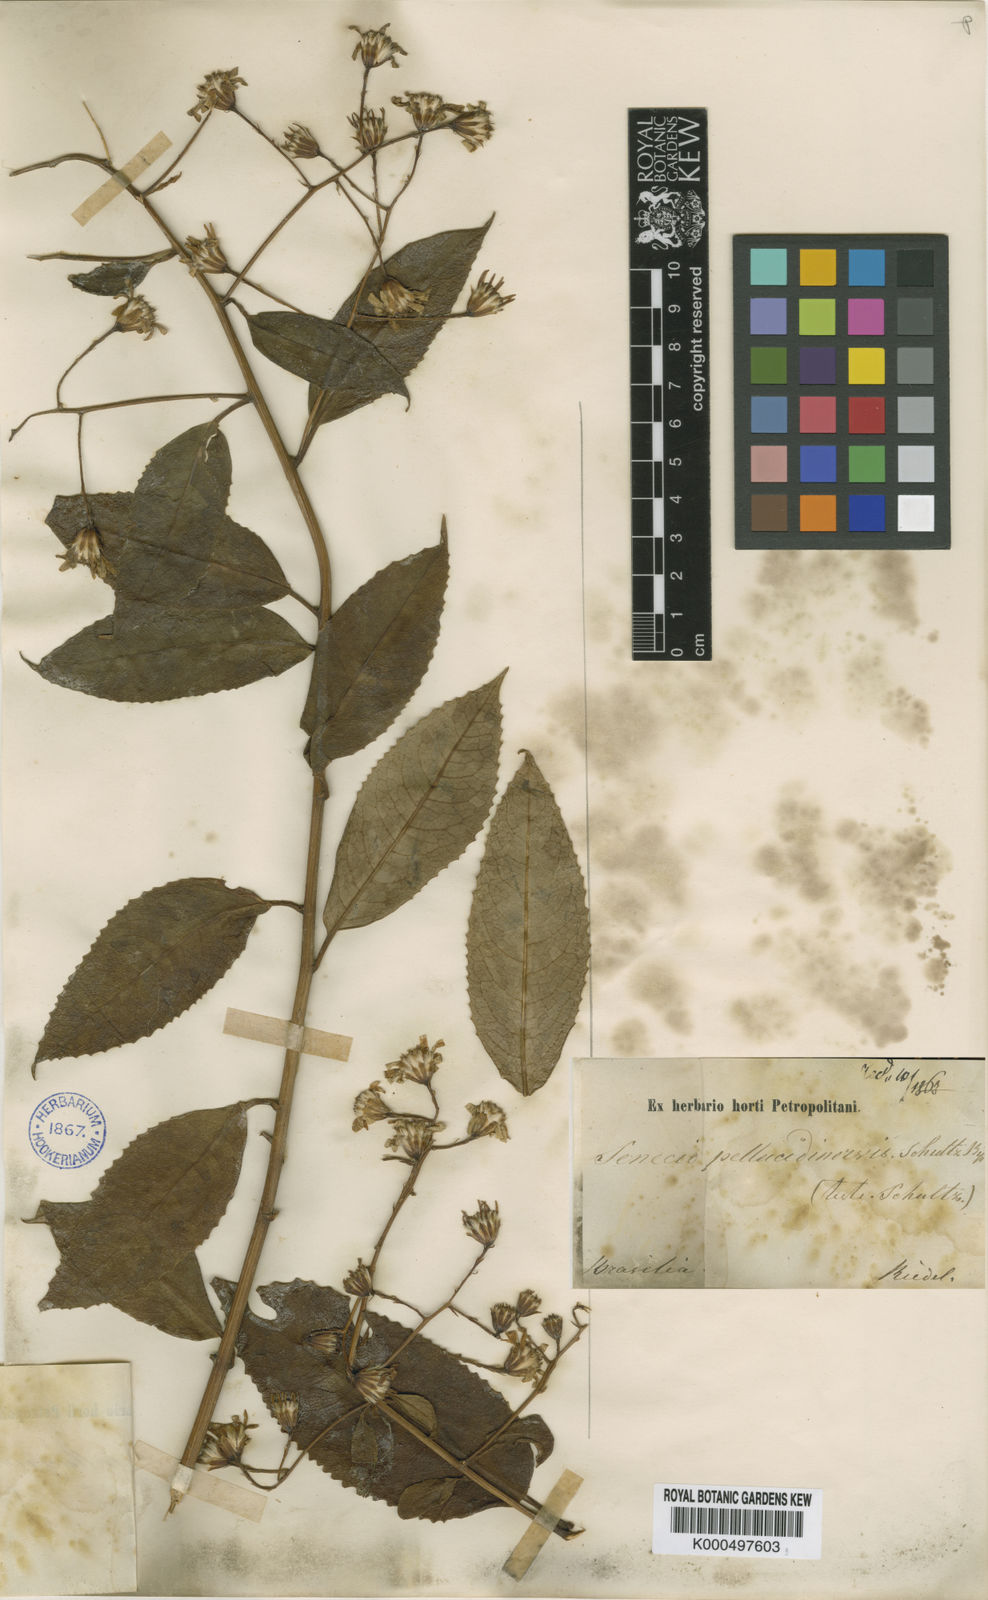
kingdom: Plantae
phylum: Tracheophyta
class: Magnoliopsida
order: Asterales
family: Asteraceae
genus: Dendrophorbium
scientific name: Dendrophorbium pellucidinerve
